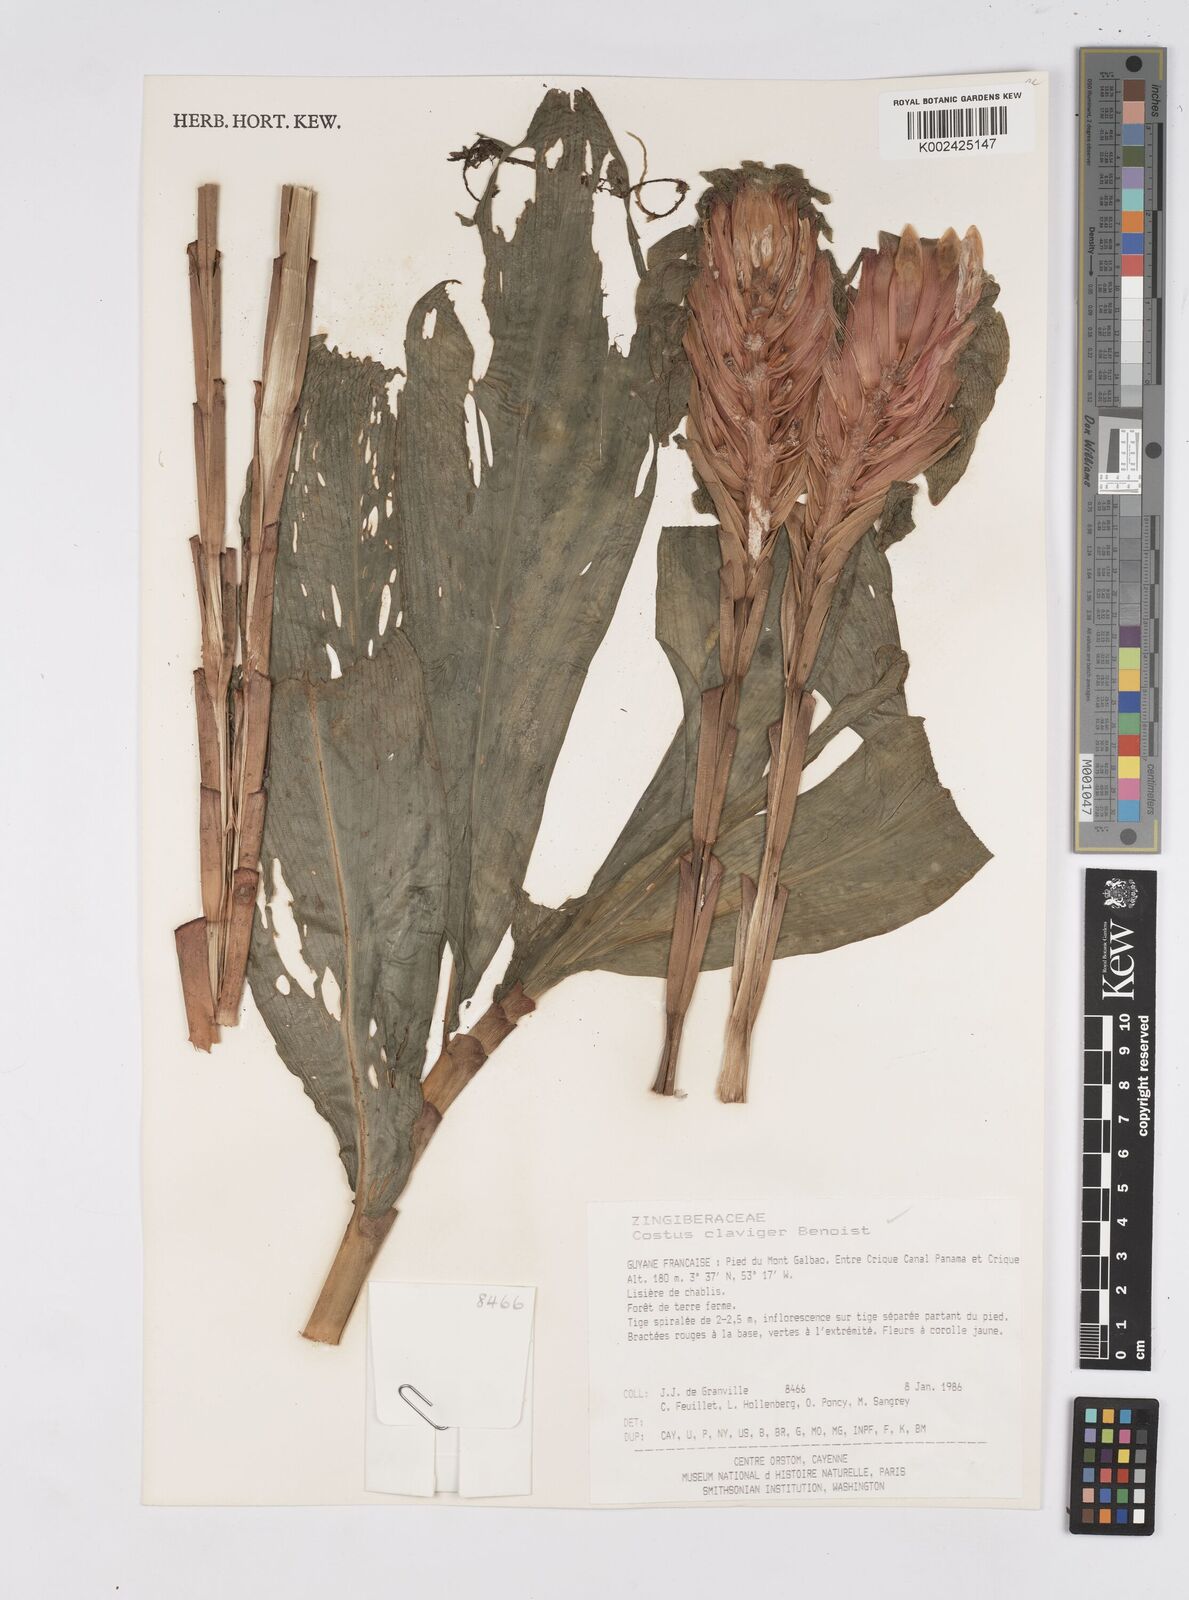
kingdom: Plantae
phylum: Tracheophyta
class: Liliopsida
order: Zingiberales
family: Costaceae
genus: Costus
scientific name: Costus claviger
